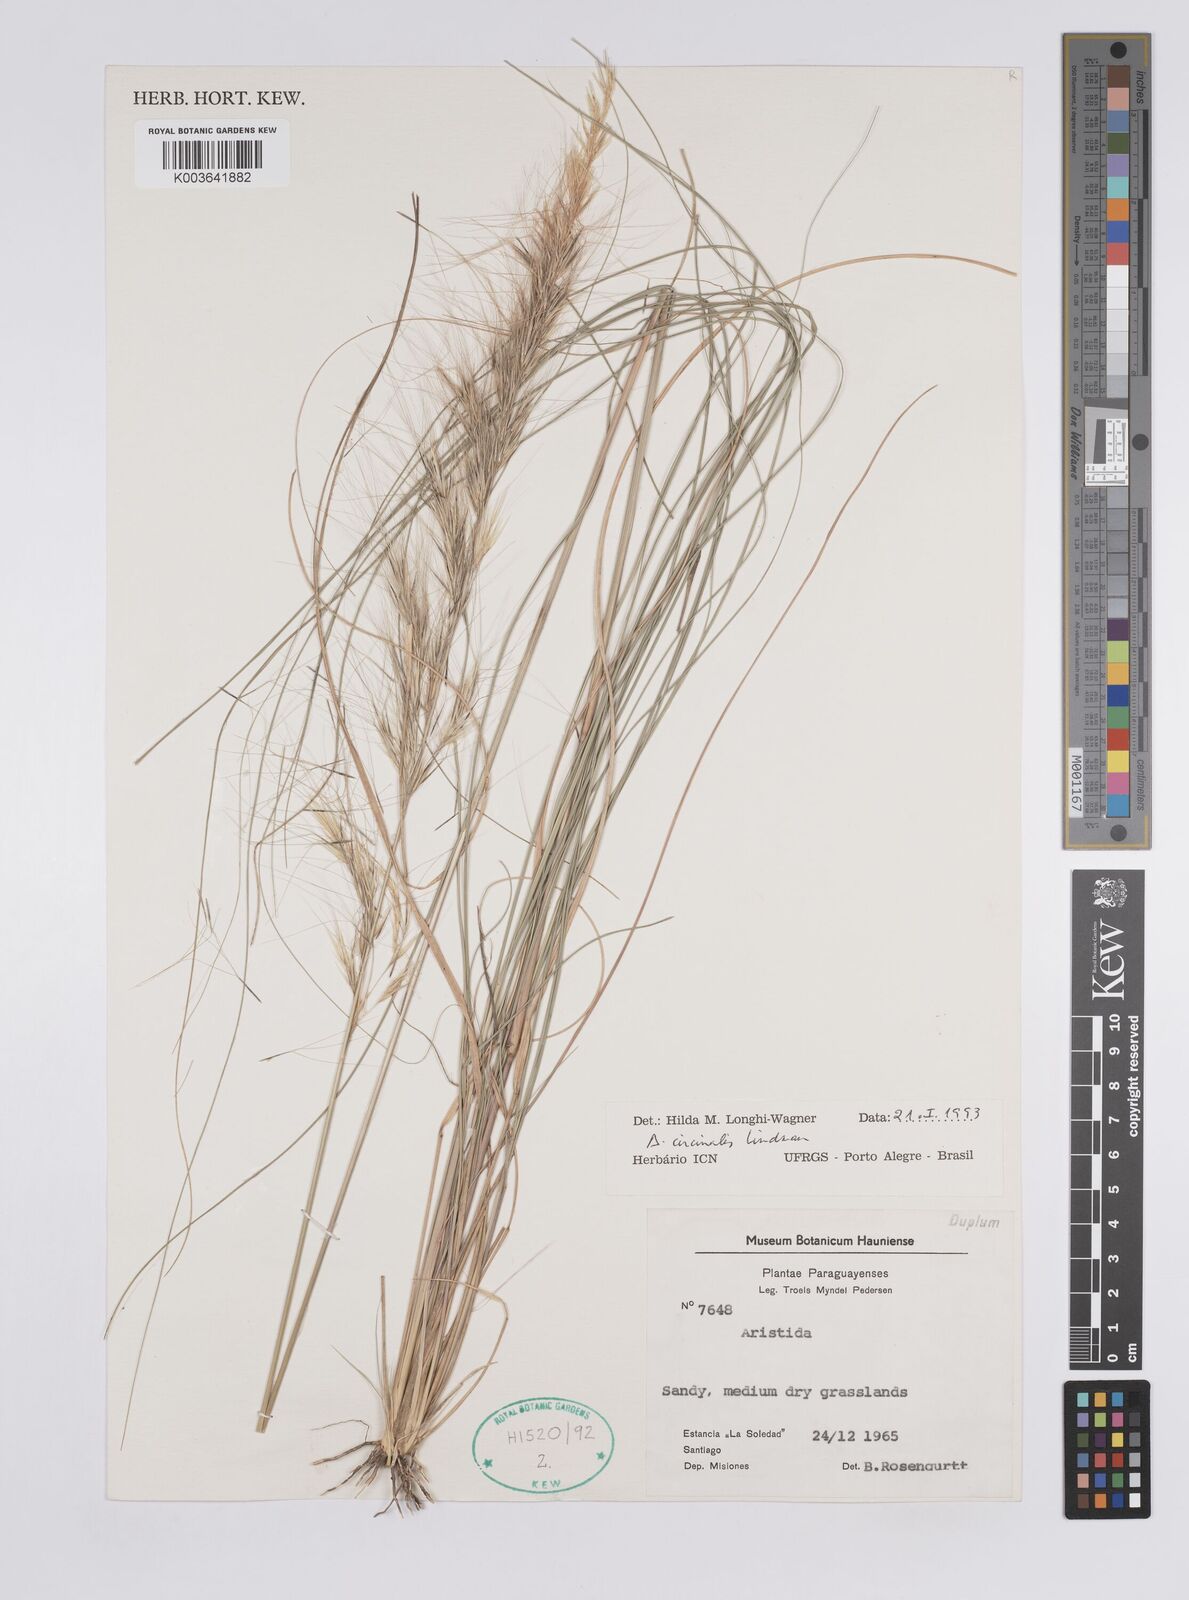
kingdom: Plantae
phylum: Tracheophyta
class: Liliopsida
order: Poales
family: Poaceae
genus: Aristida
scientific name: Aristida circinalis
